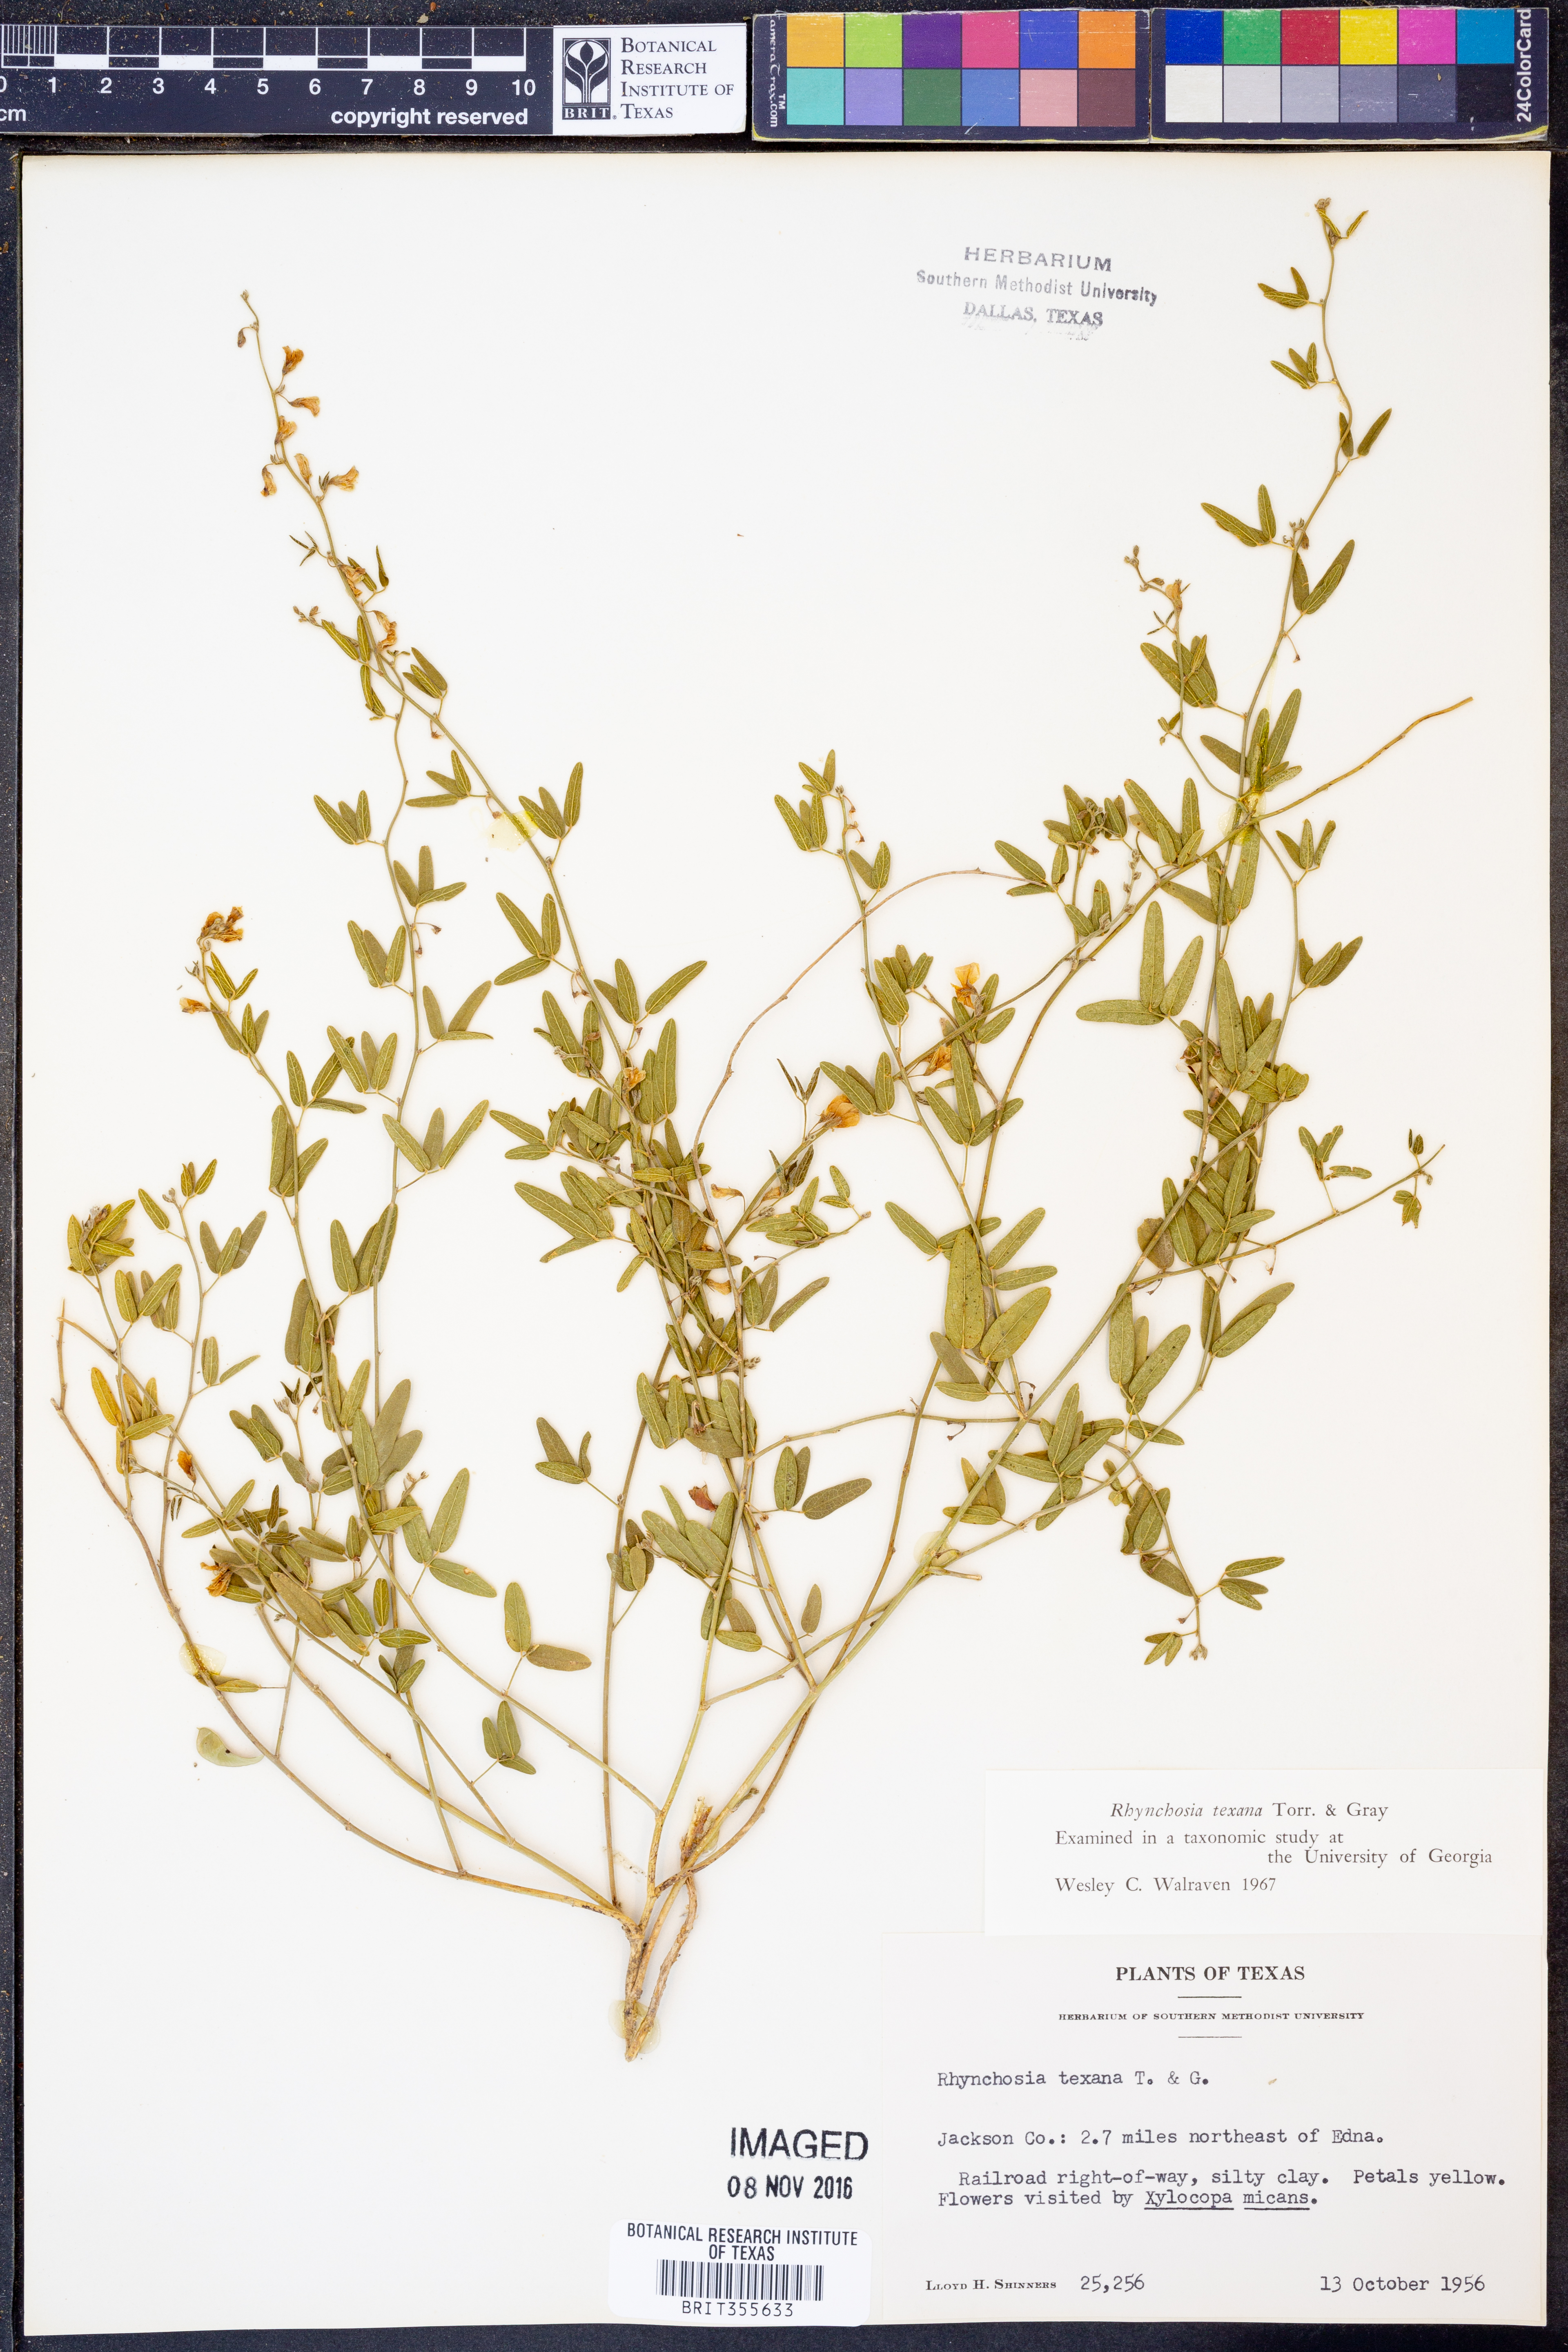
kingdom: Plantae
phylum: Tracheophyta
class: Magnoliopsida
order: Fabales
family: Fabaceae
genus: Rhynchosia
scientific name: Rhynchosia senna
